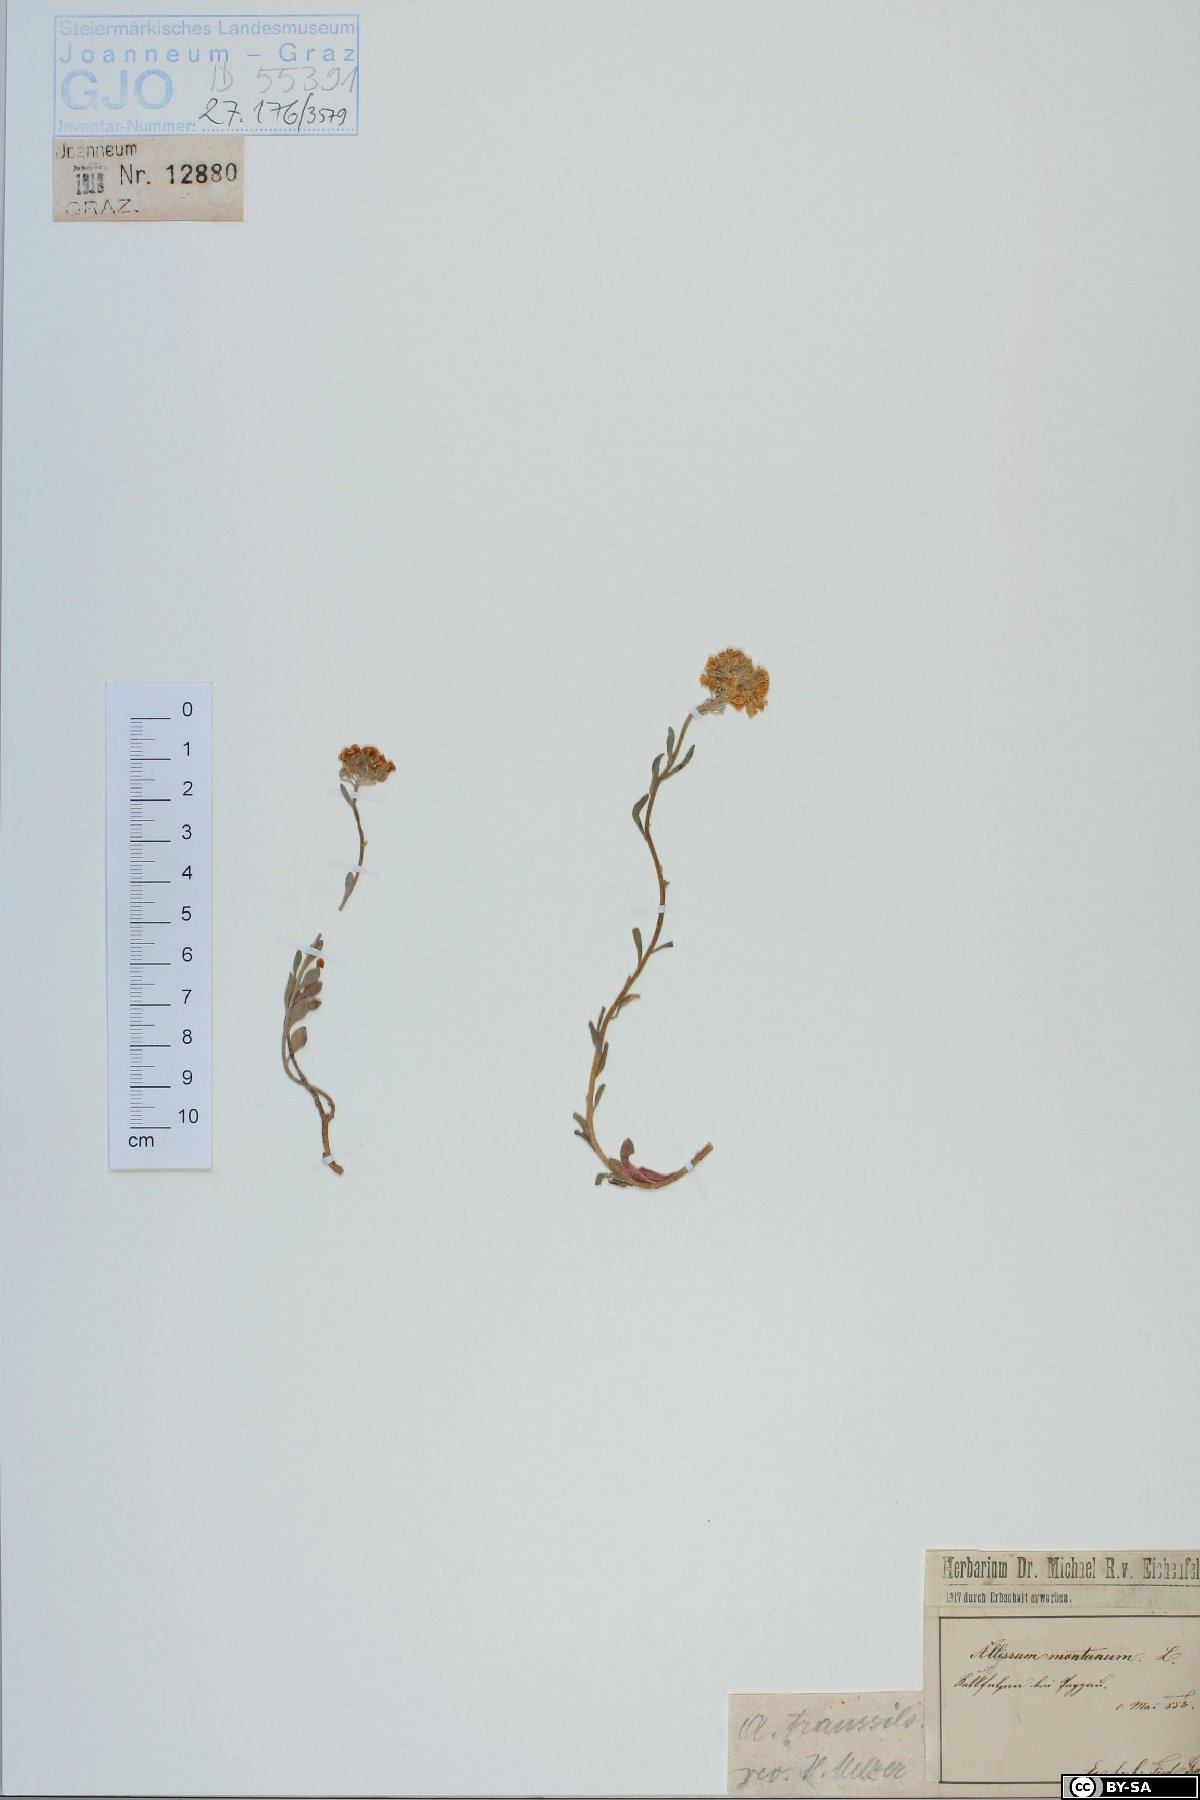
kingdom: Plantae
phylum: Tracheophyta
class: Magnoliopsida
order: Brassicales
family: Brassicaceae
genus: Alyssum
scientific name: Alyssum repens
